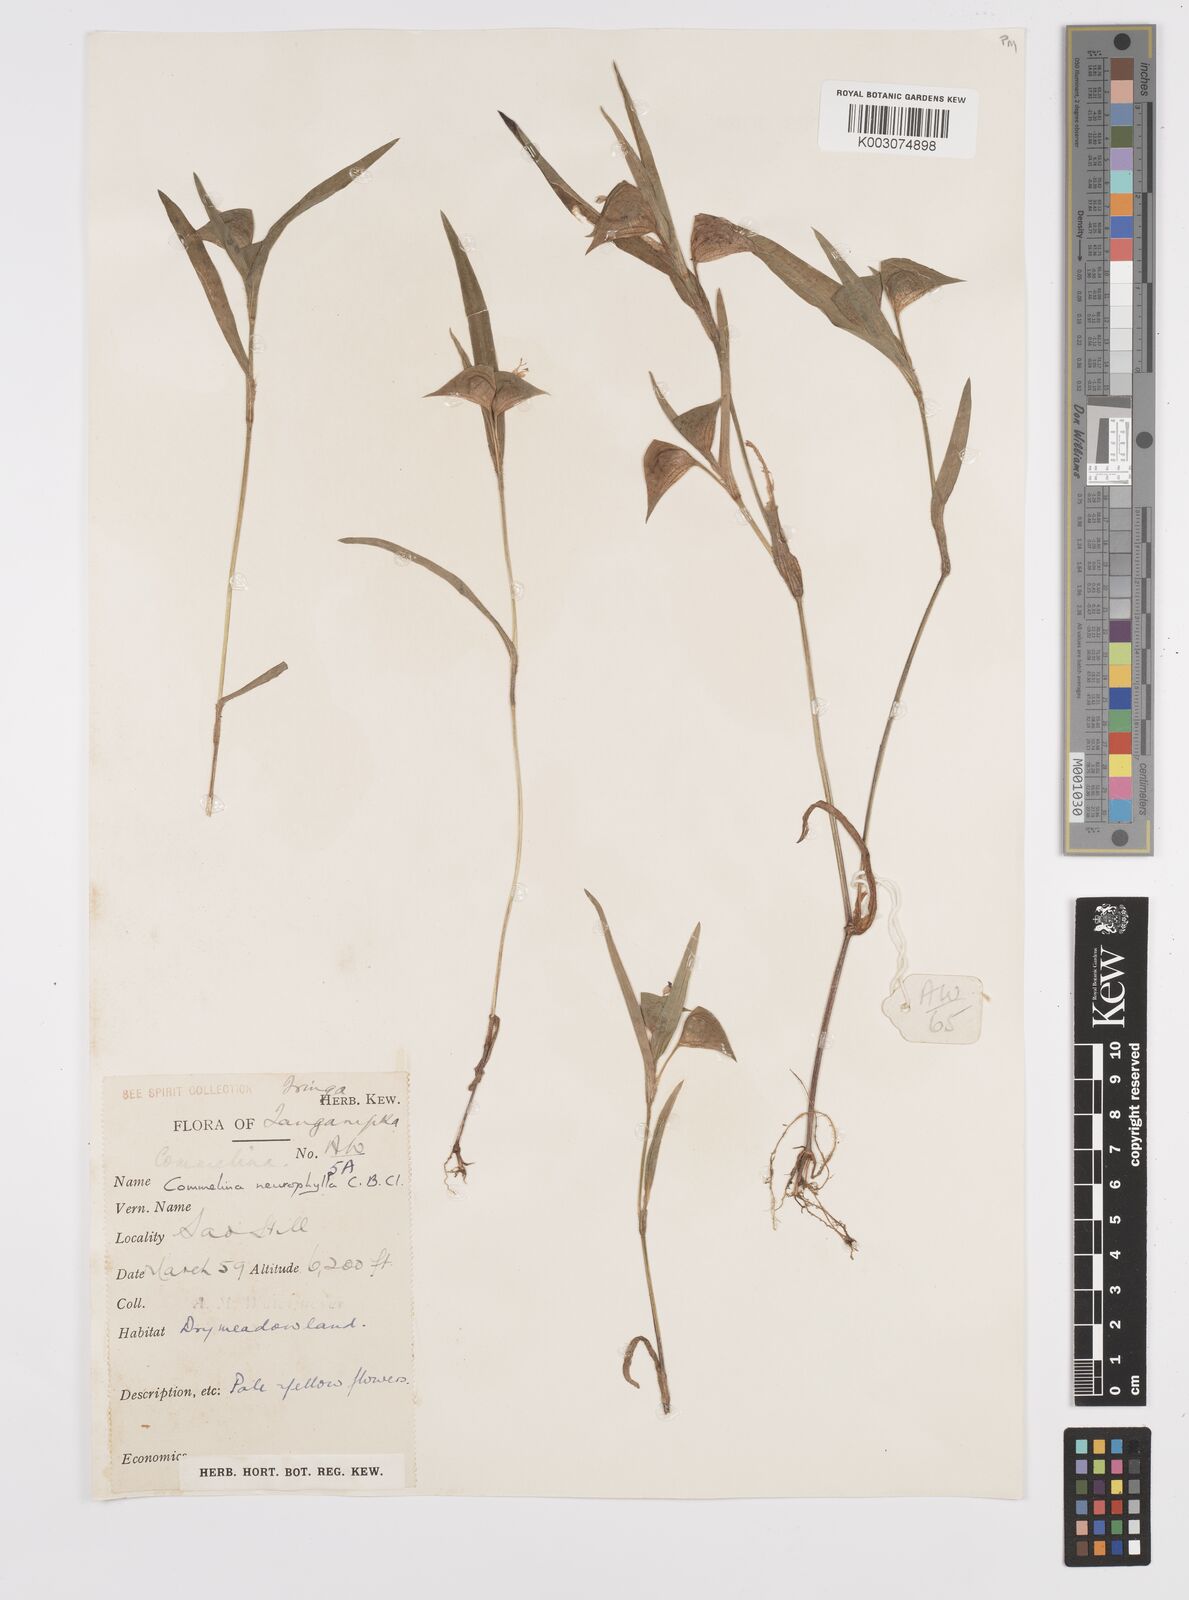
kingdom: Plantae
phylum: Tracheophyta
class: Liliopsida
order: Commelinales
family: Commelinaceae
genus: Commelina
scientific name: Commelina neurophylla
